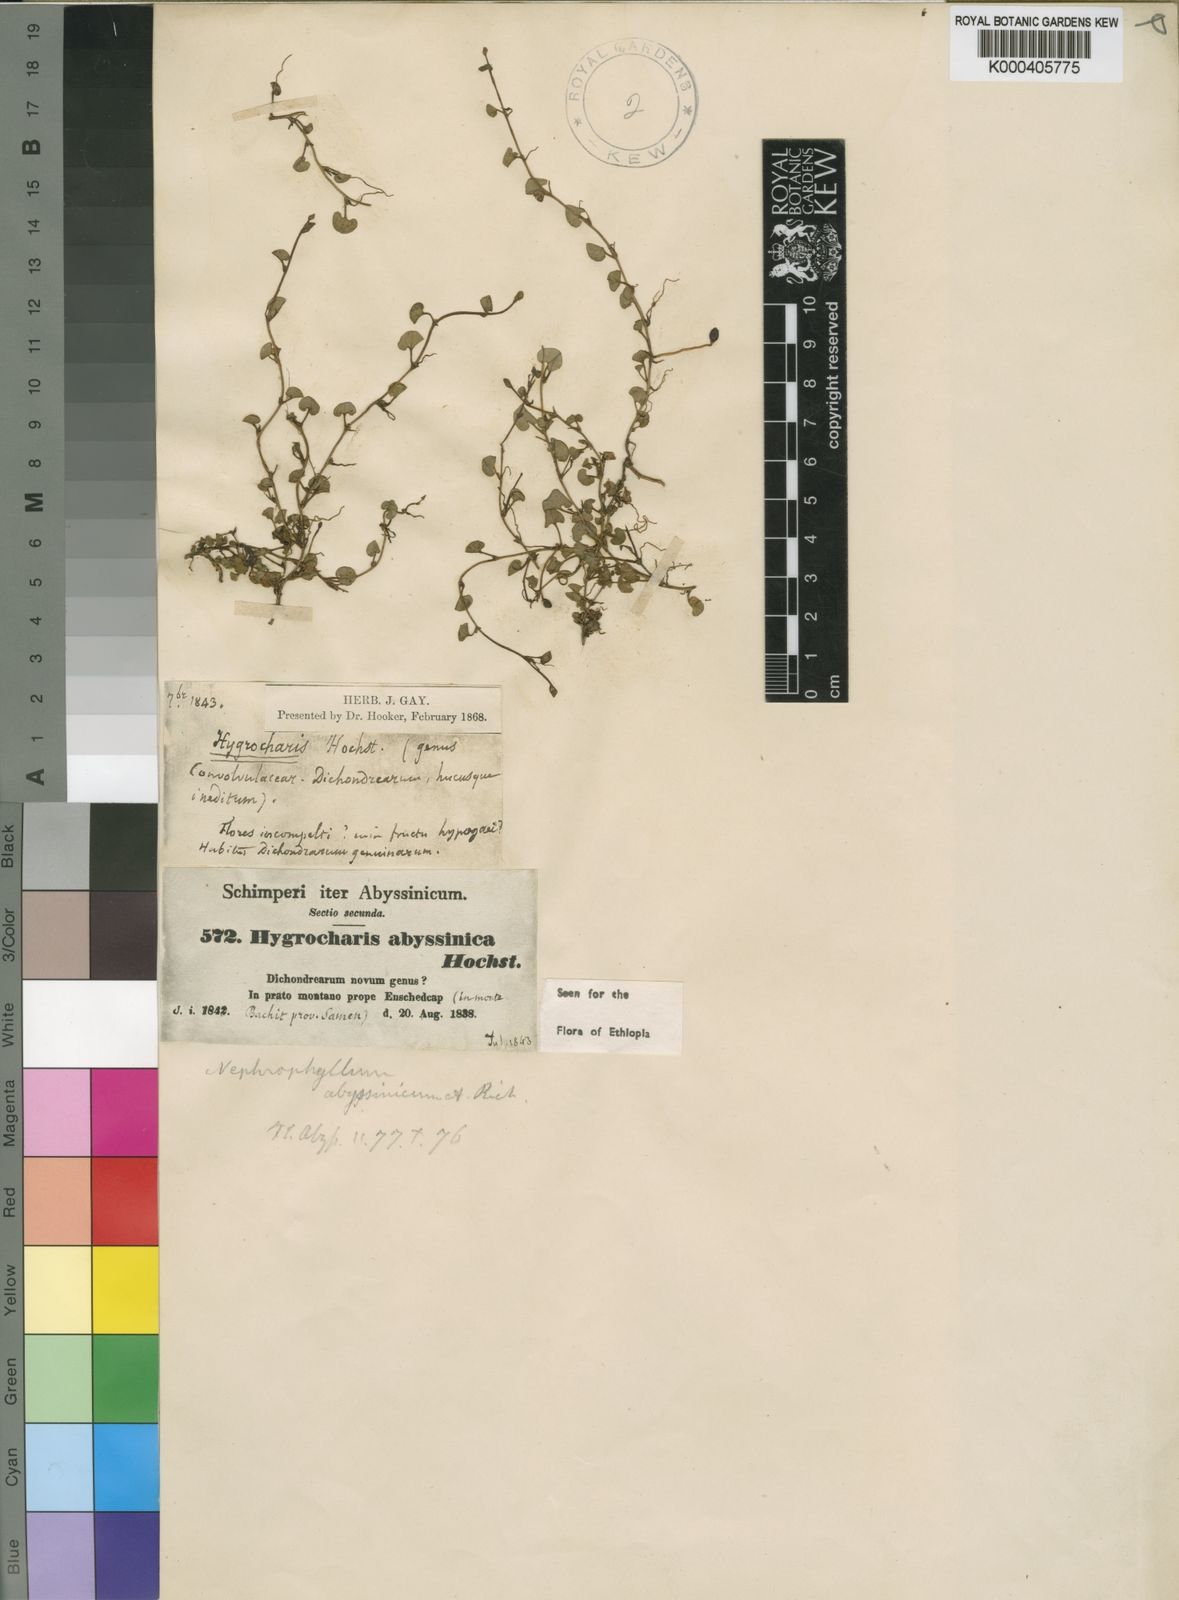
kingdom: Plantae
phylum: Tracheophyta
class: Magnoliopsida
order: Solanales
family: Convolvulaceae
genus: Nephrophyllum
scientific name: Nephrophyllum abyssinicum
